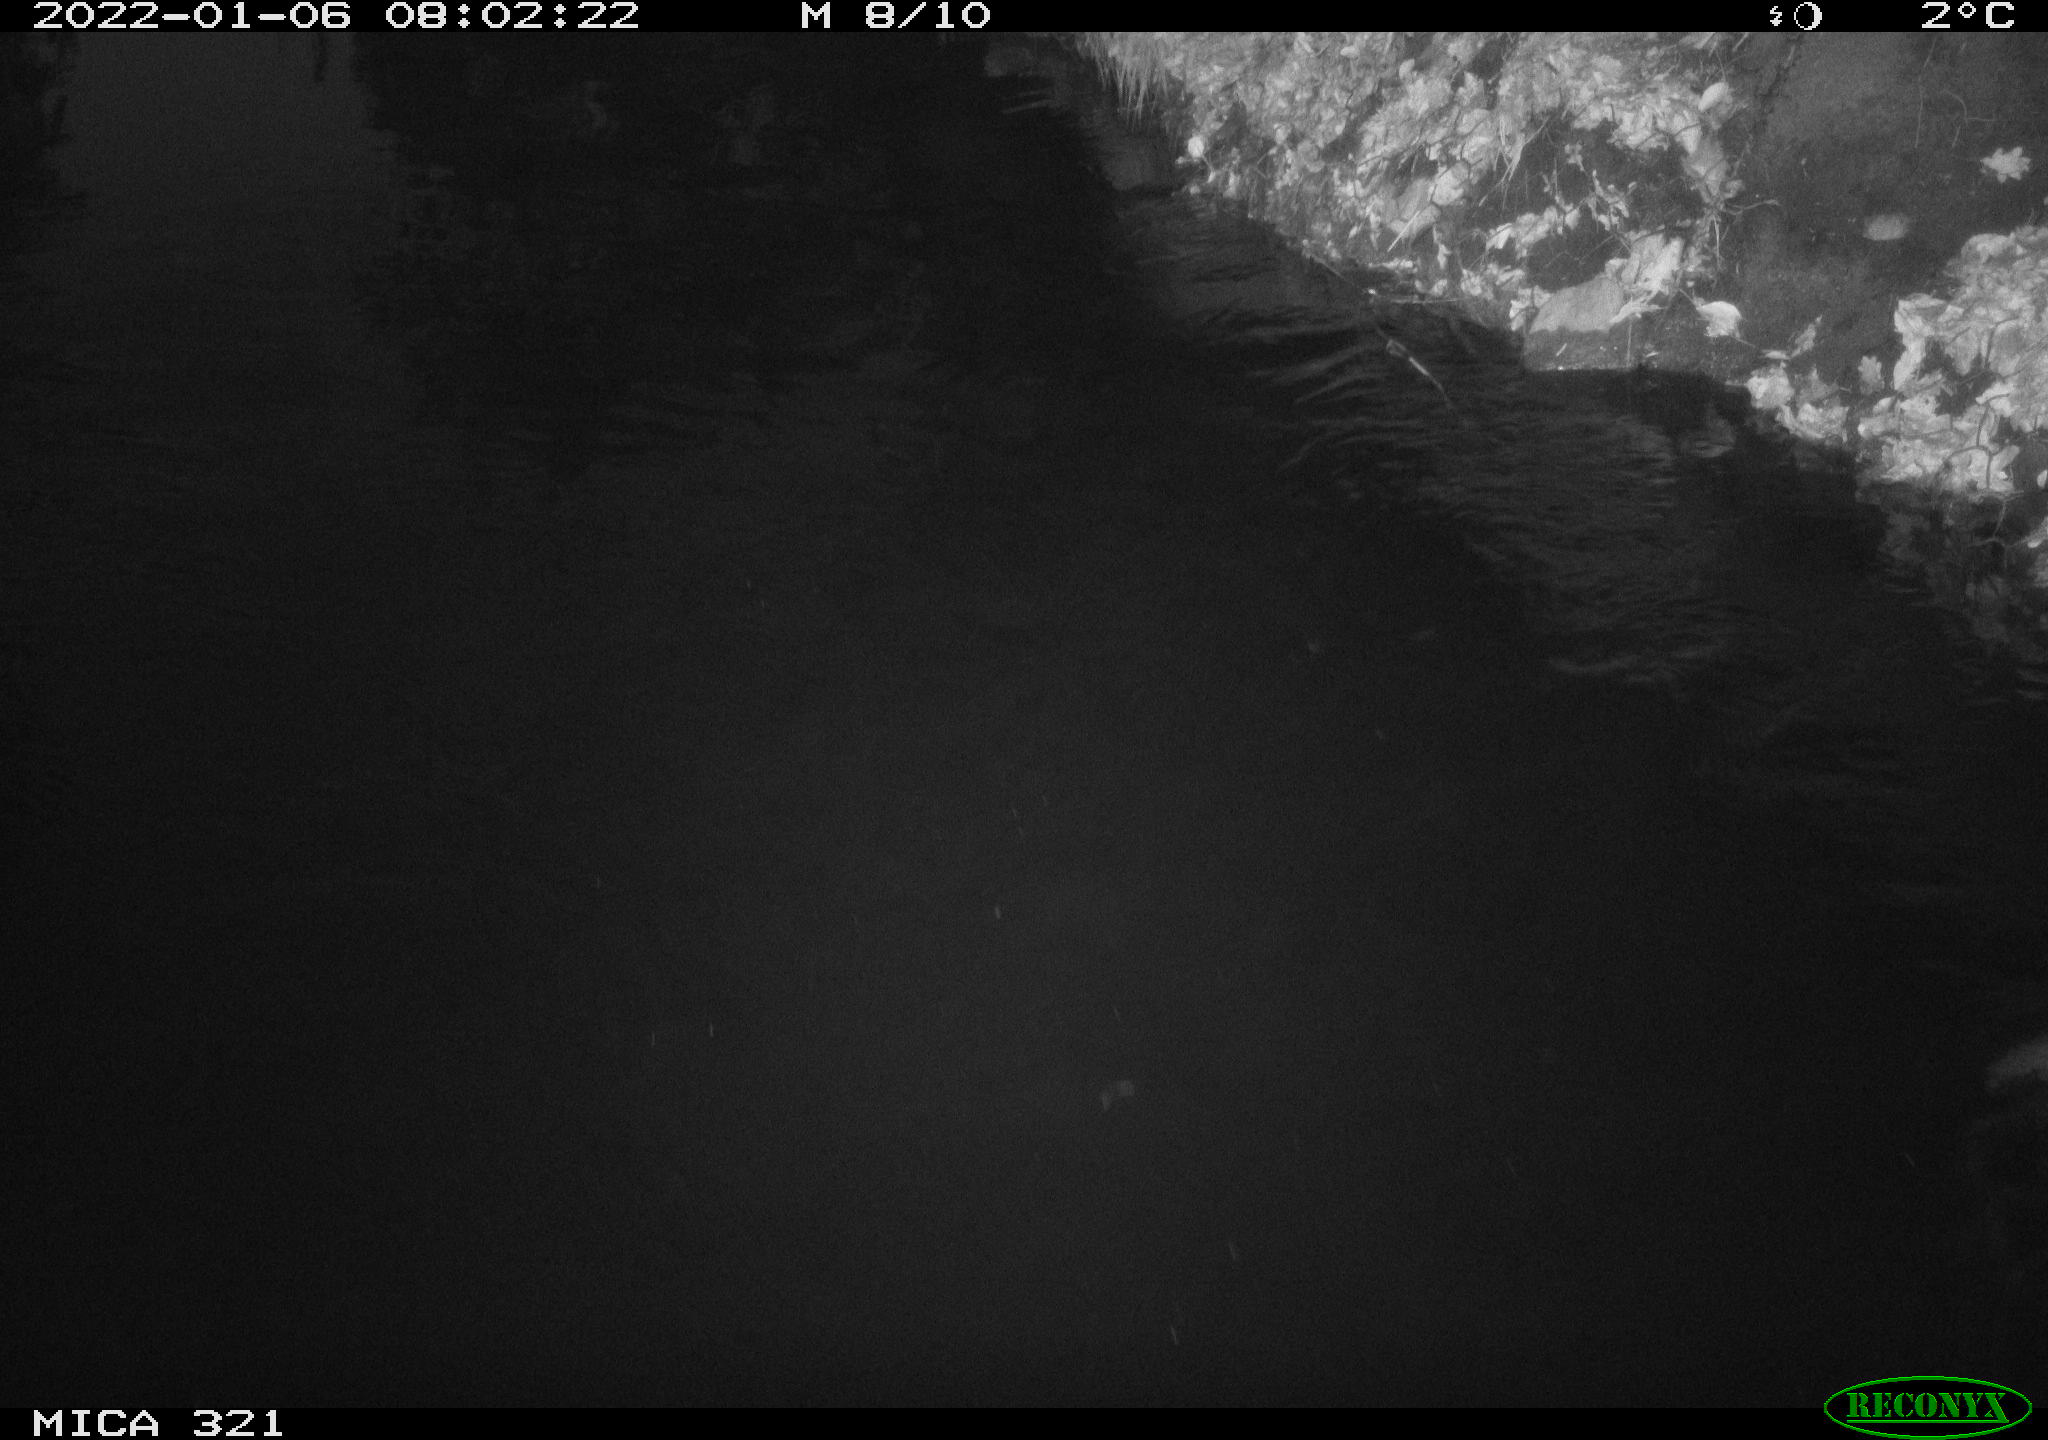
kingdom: Animalia
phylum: Chordata
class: Aves
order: Anseriformes
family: Anatidae
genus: Anas
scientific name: Anas
